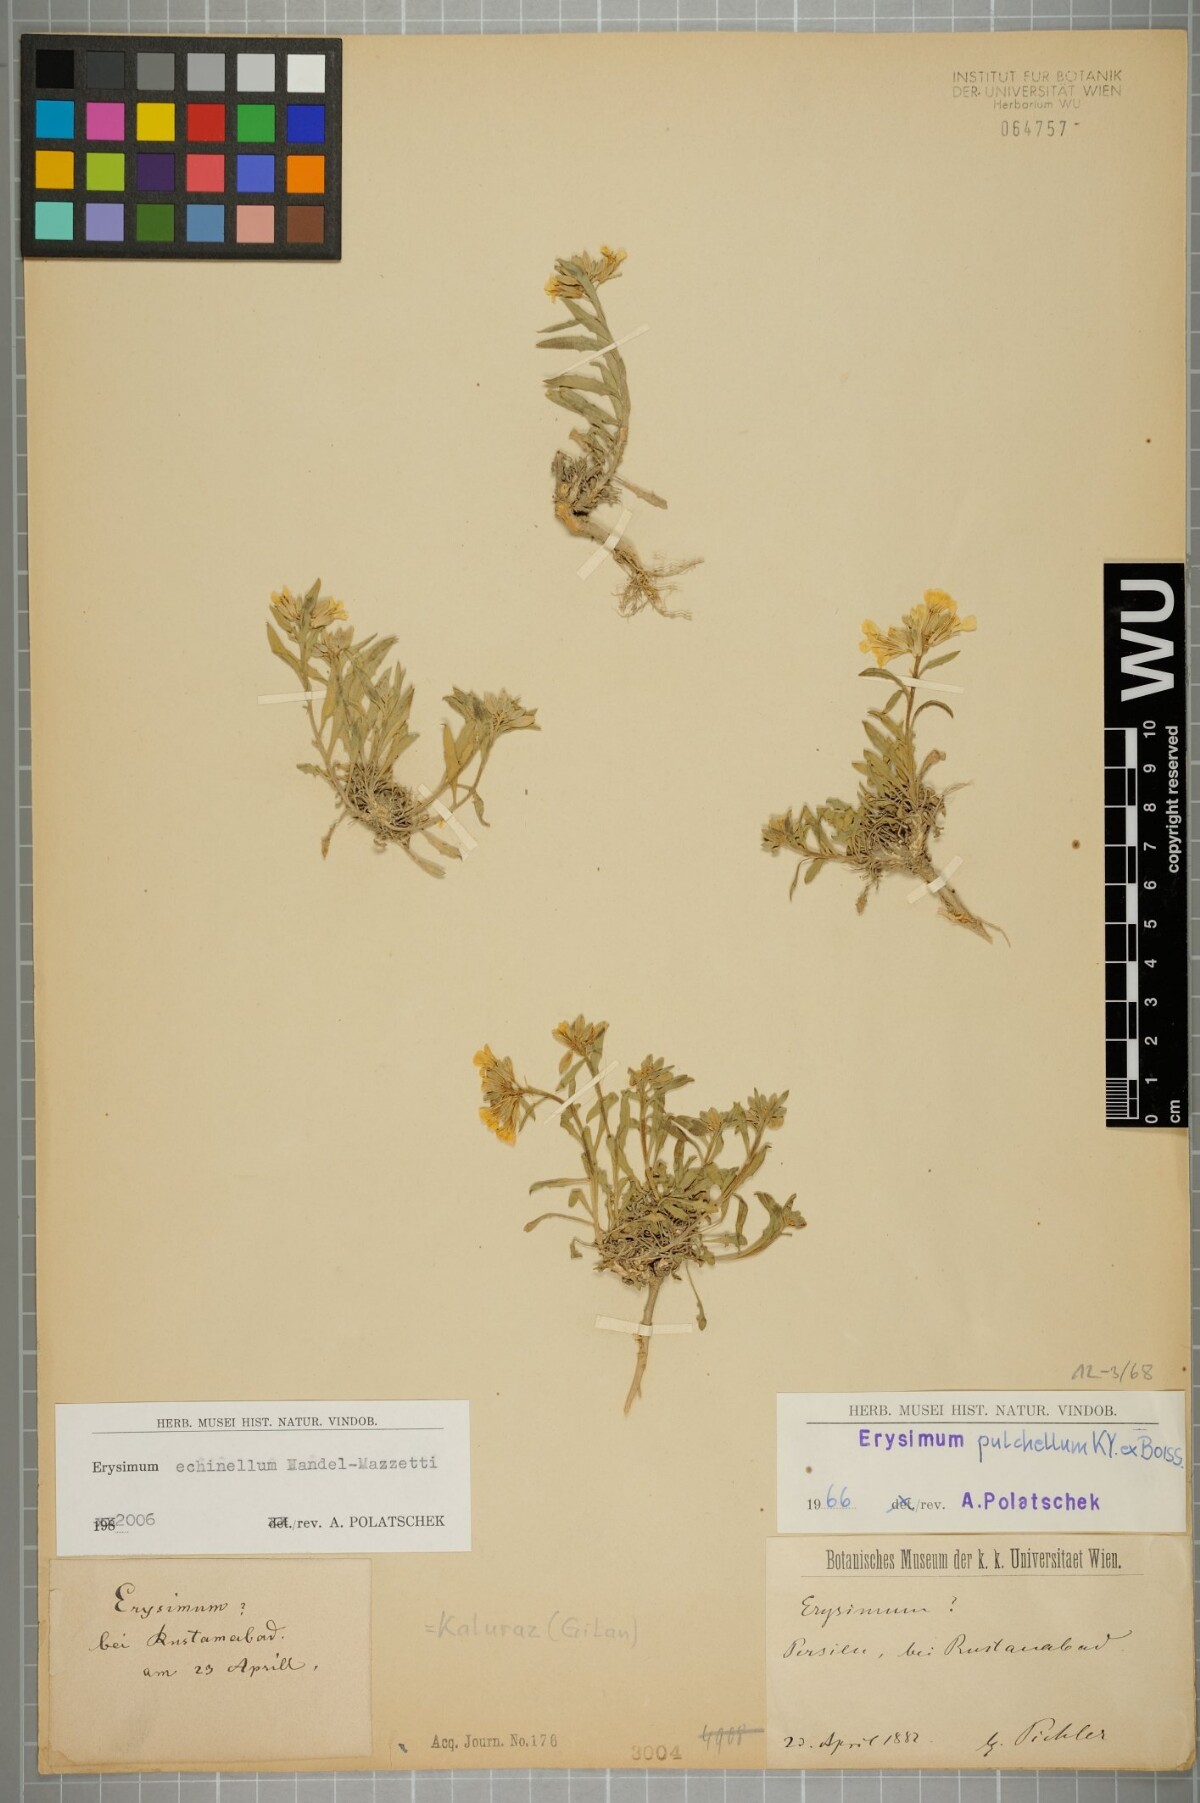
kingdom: Plantae
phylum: Tracheophyta
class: Magnoliopsida
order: Brassicales
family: Brassicaceae
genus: Erysimum
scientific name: Erysimum echinellum
